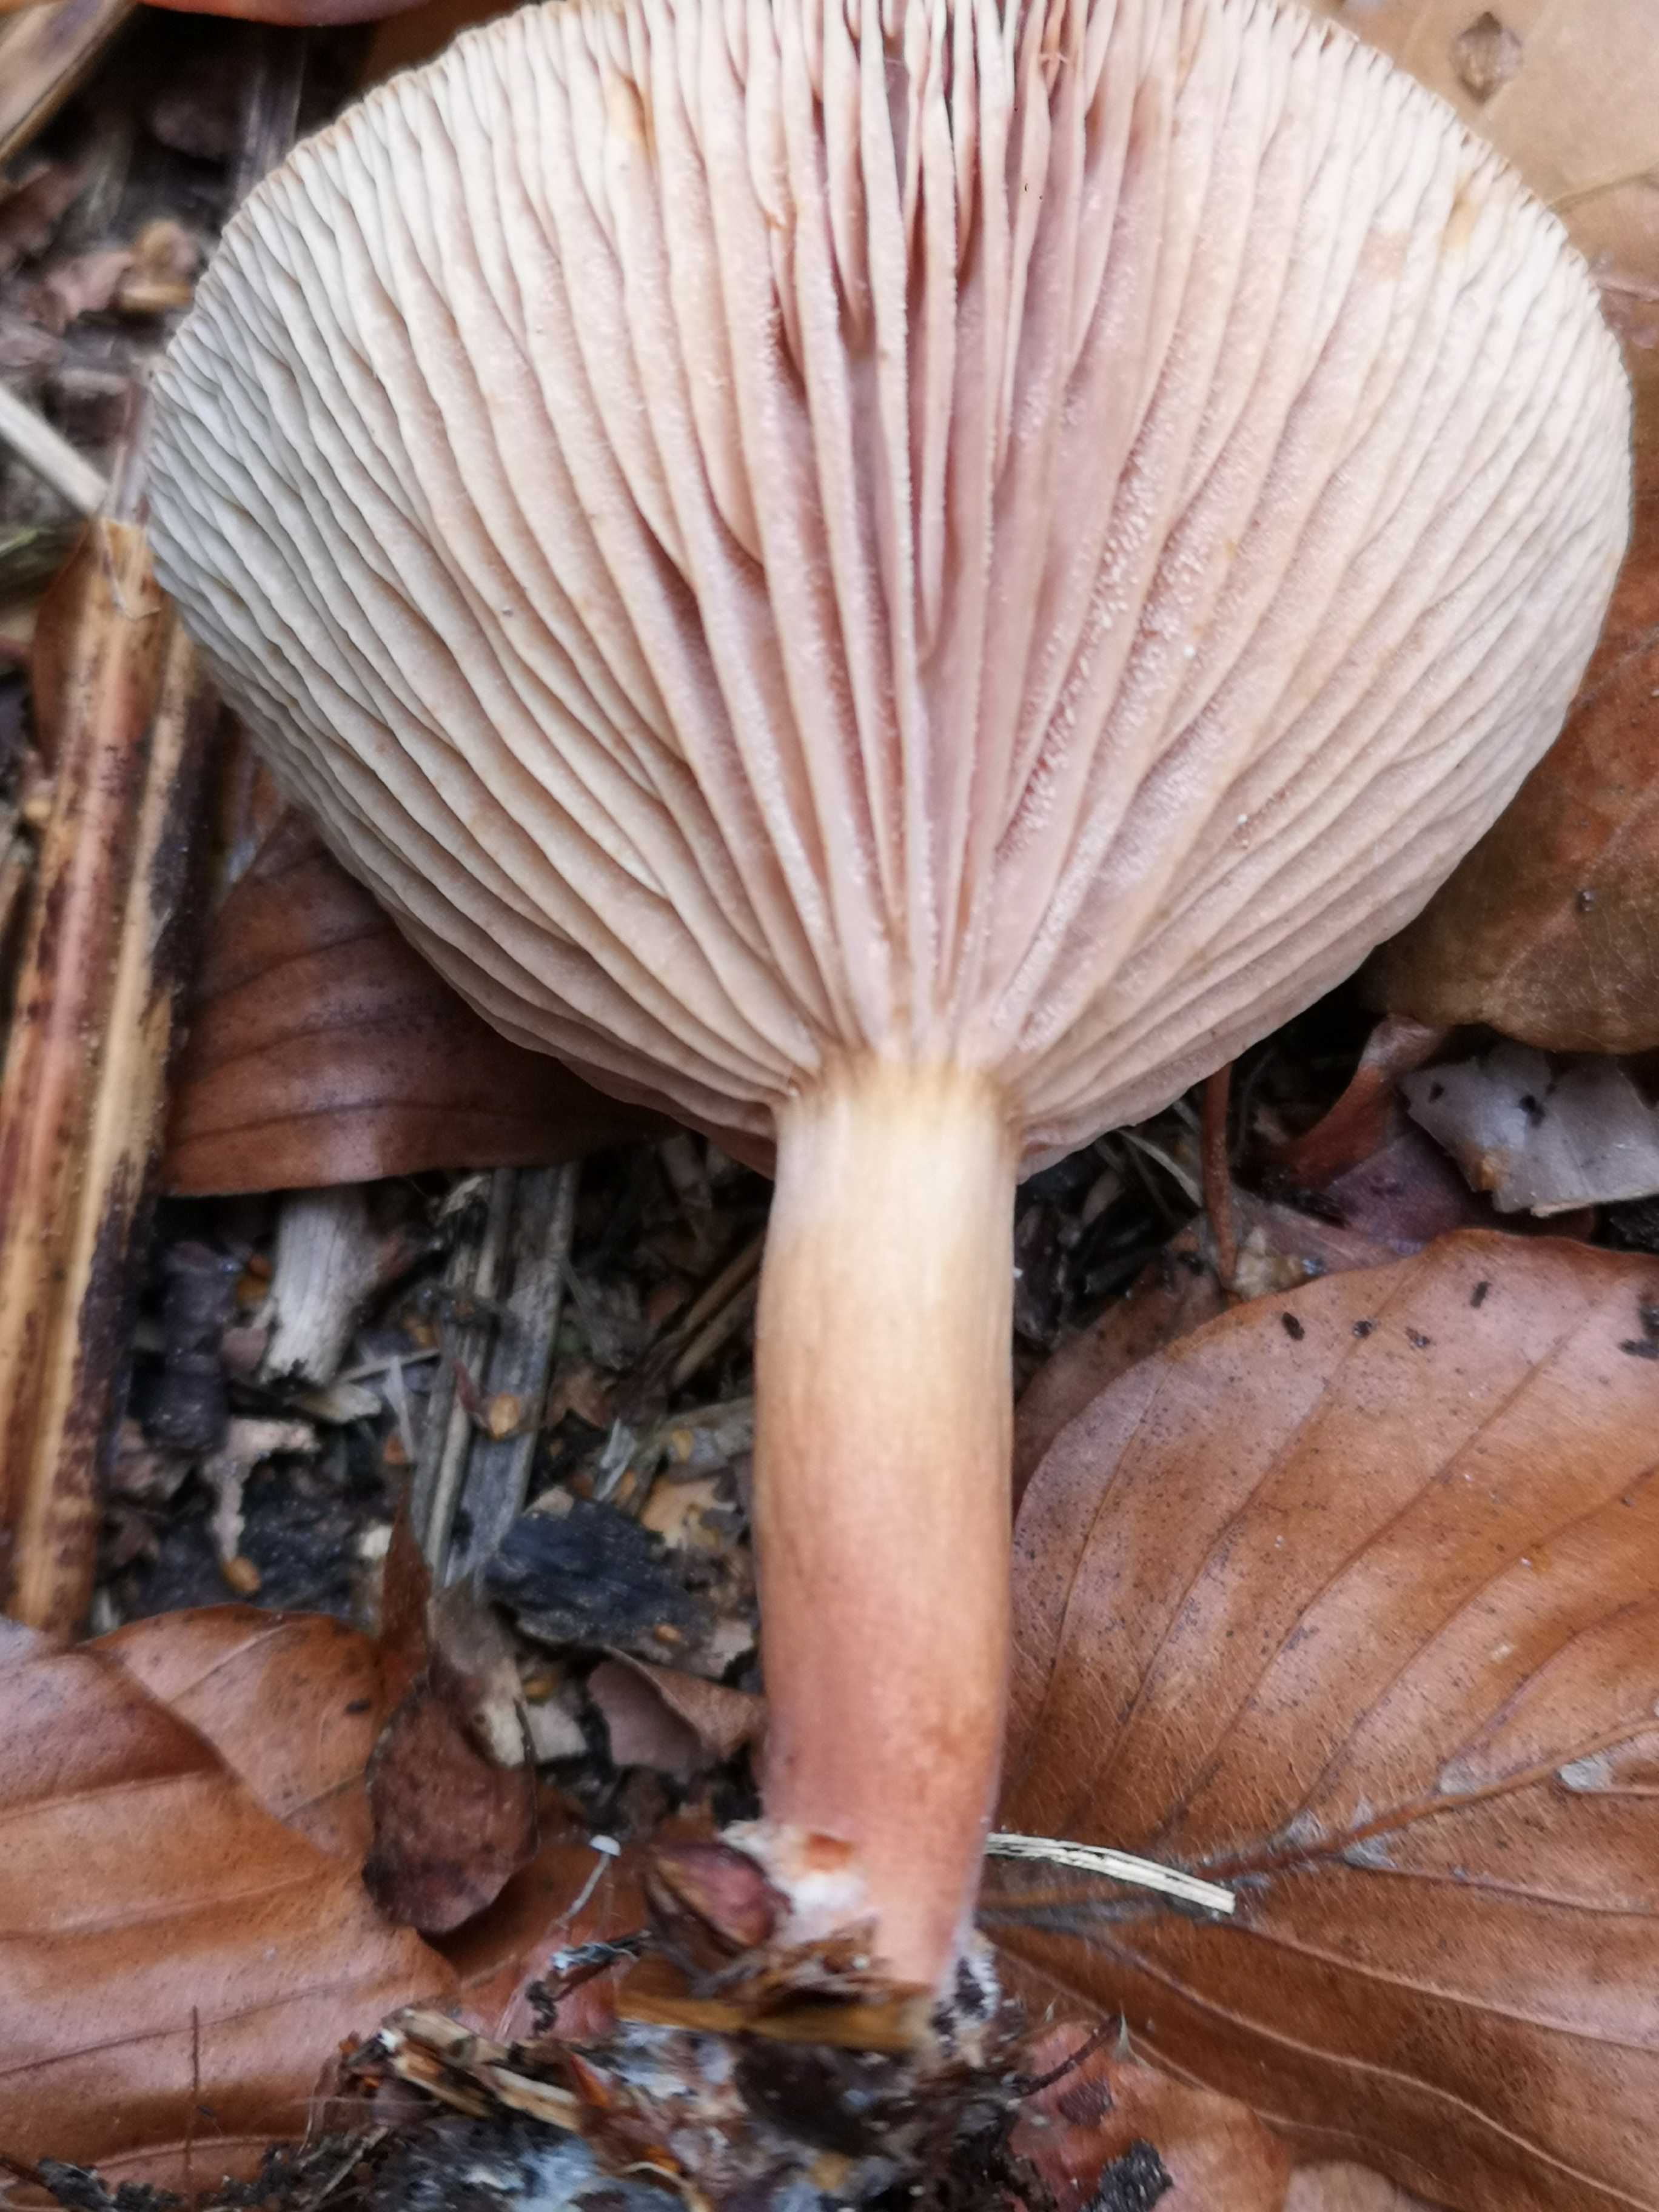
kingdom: Fungi
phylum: Basidiomycota
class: Agaricomycetes
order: Russulales
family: Russulaceae
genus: Lactarius
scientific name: Lactarius subdulcis
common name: sødlig mælkehat
